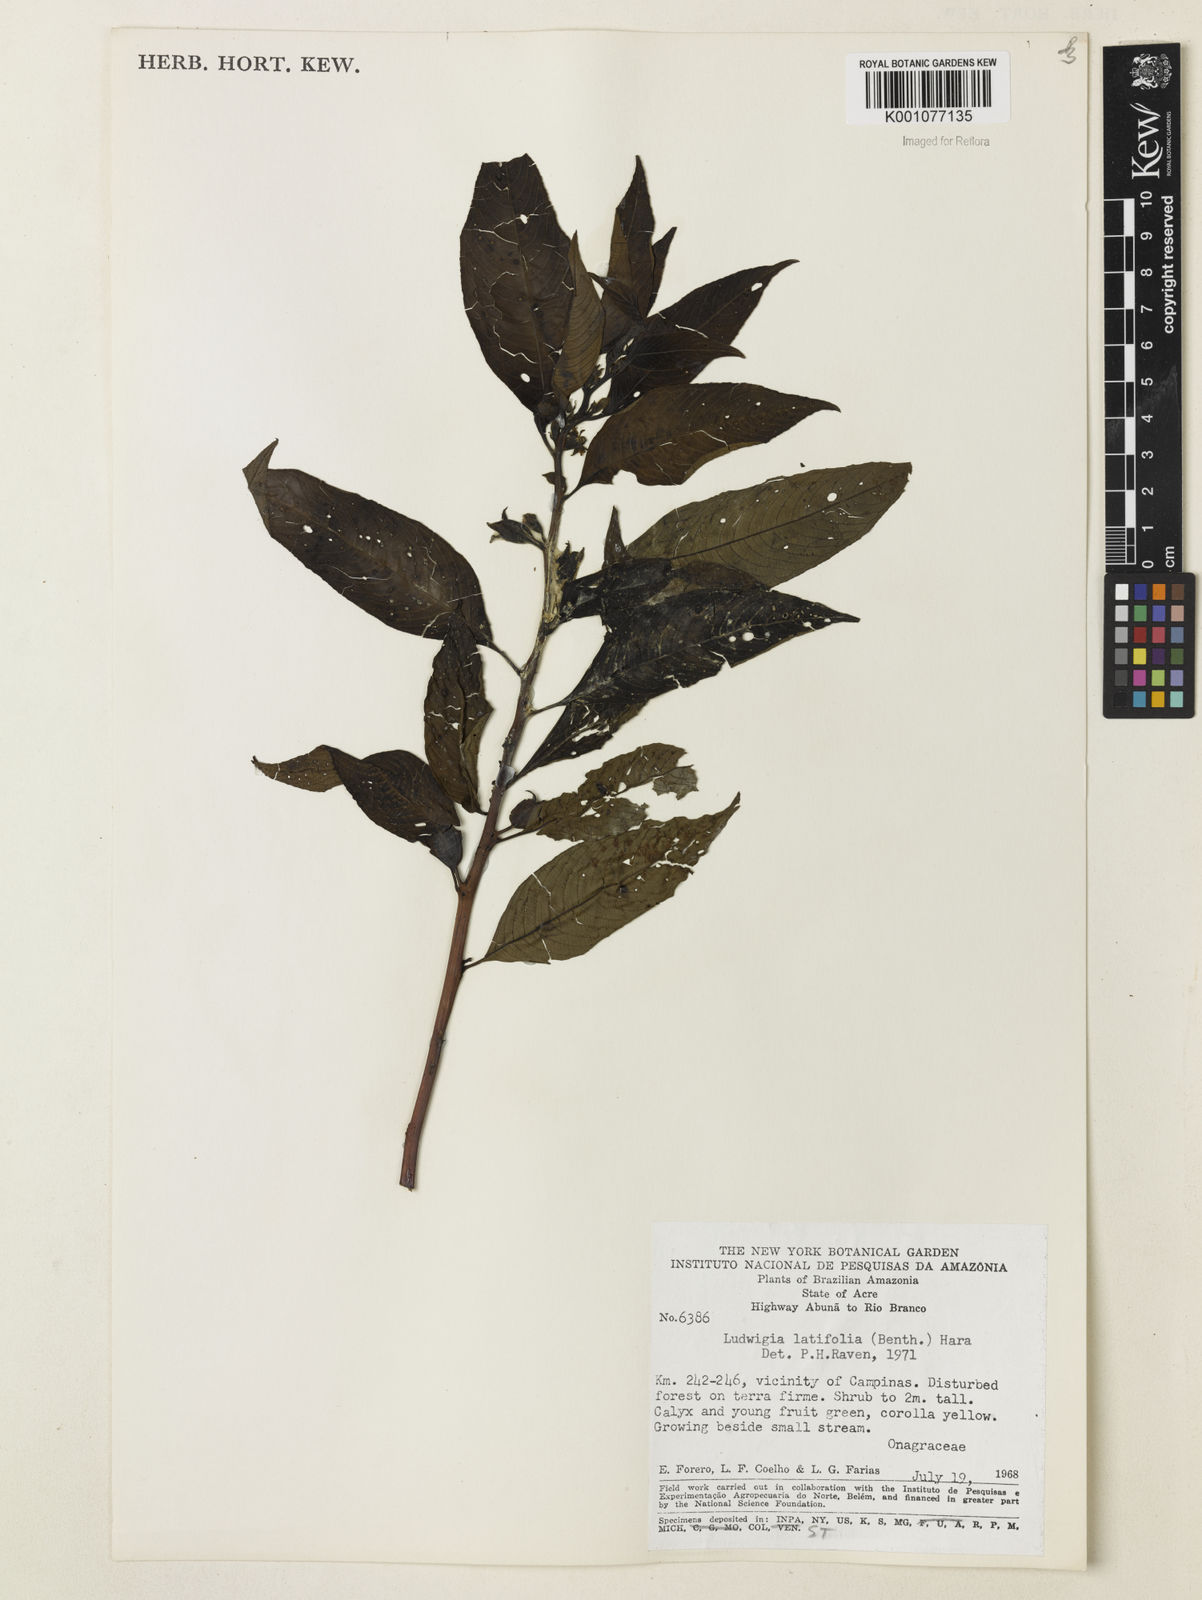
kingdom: Plantae
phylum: Tracheophyta
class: Magnoliopsida
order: Myrtales
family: Onagraceae
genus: Ludwigia
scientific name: Ludwigia latifolia
